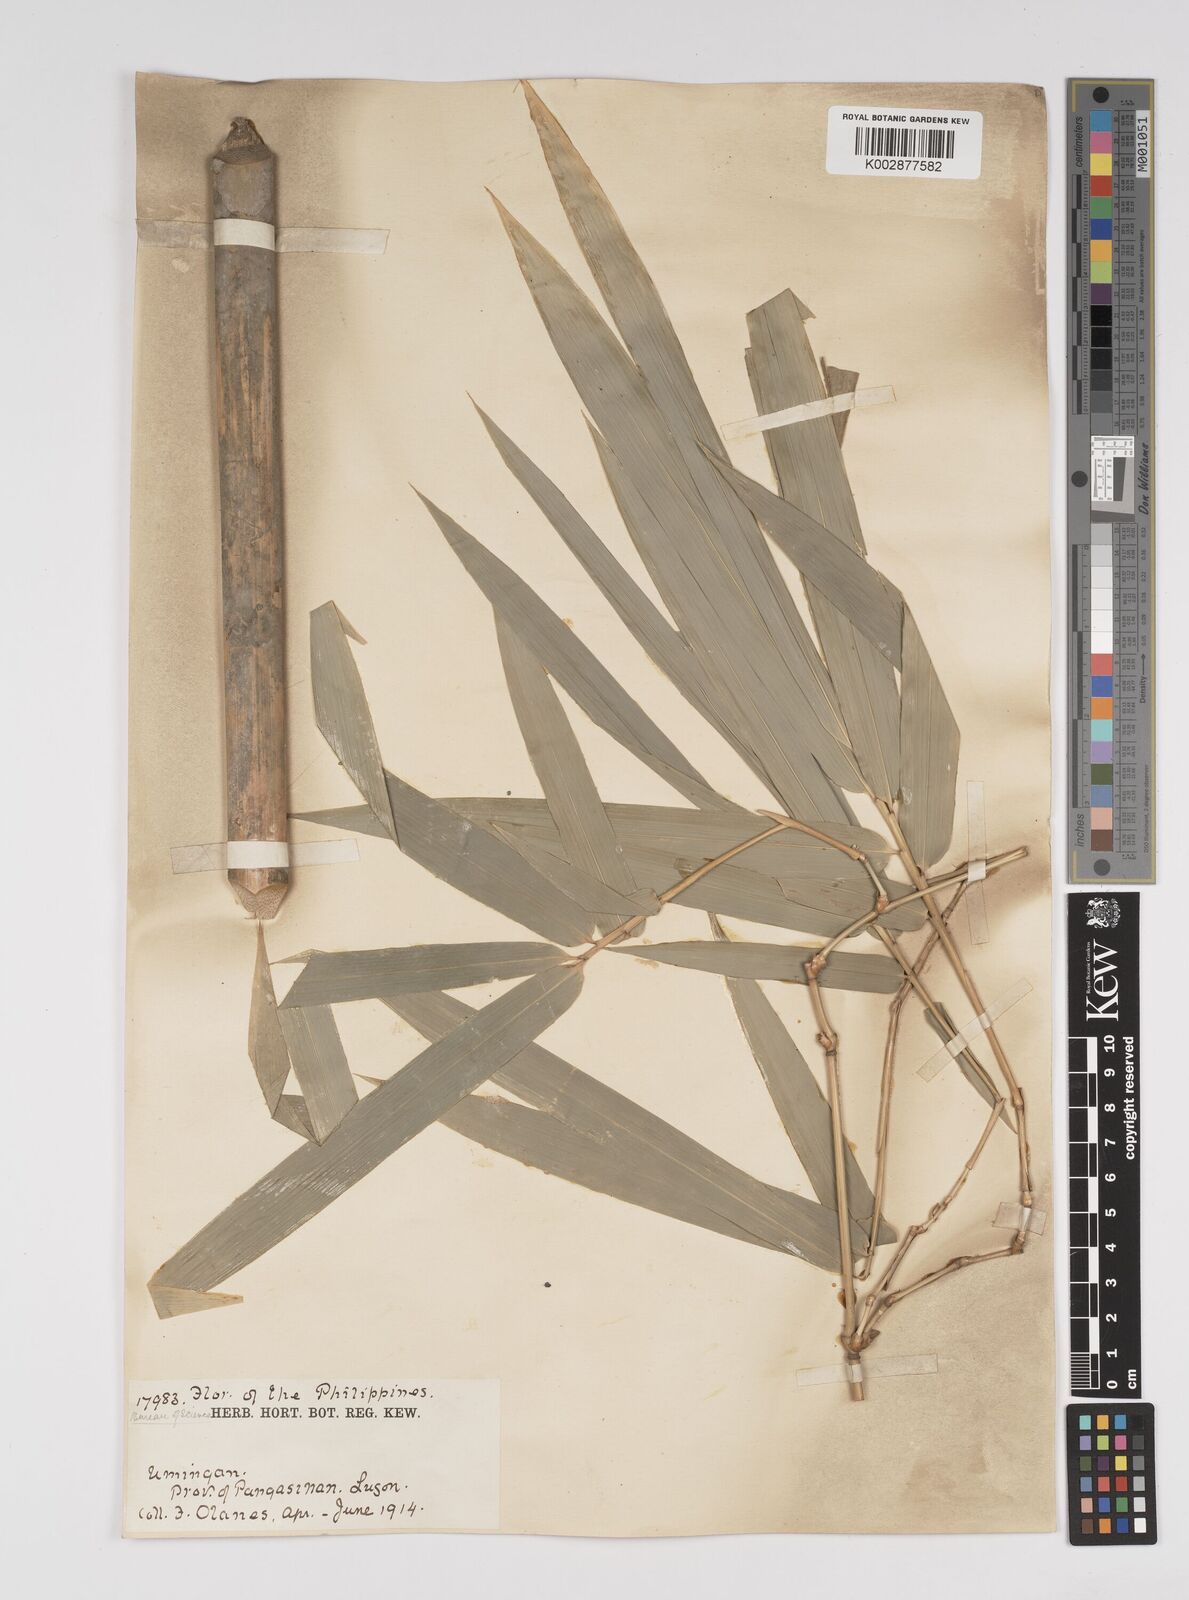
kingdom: Plantae
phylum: Tracheophyta
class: Liliopsida
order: Poales
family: Poaceae
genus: Bambusa
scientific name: Bambusa
